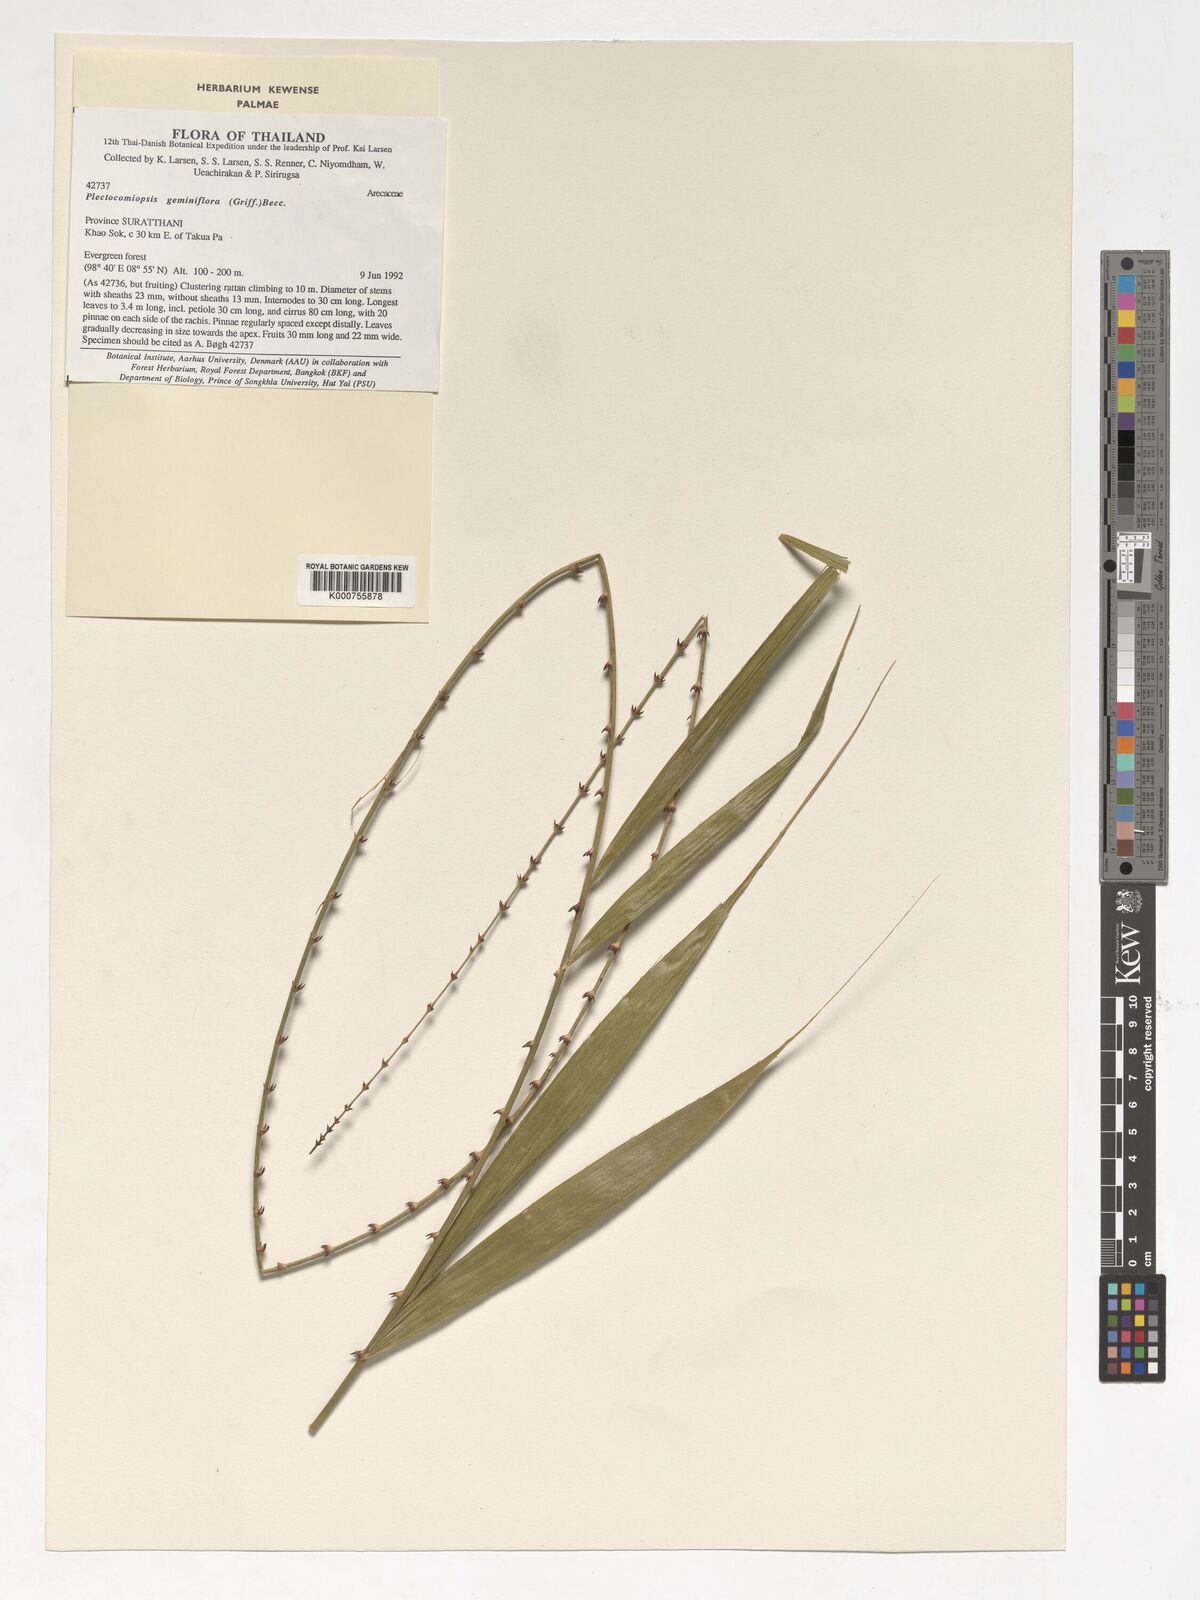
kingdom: Plantae
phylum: Tracheophyta
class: Liliopsida
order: Arecales
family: Arecaceae
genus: Plectocomiopsis
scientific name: Plectocomiopsis geminiflora
